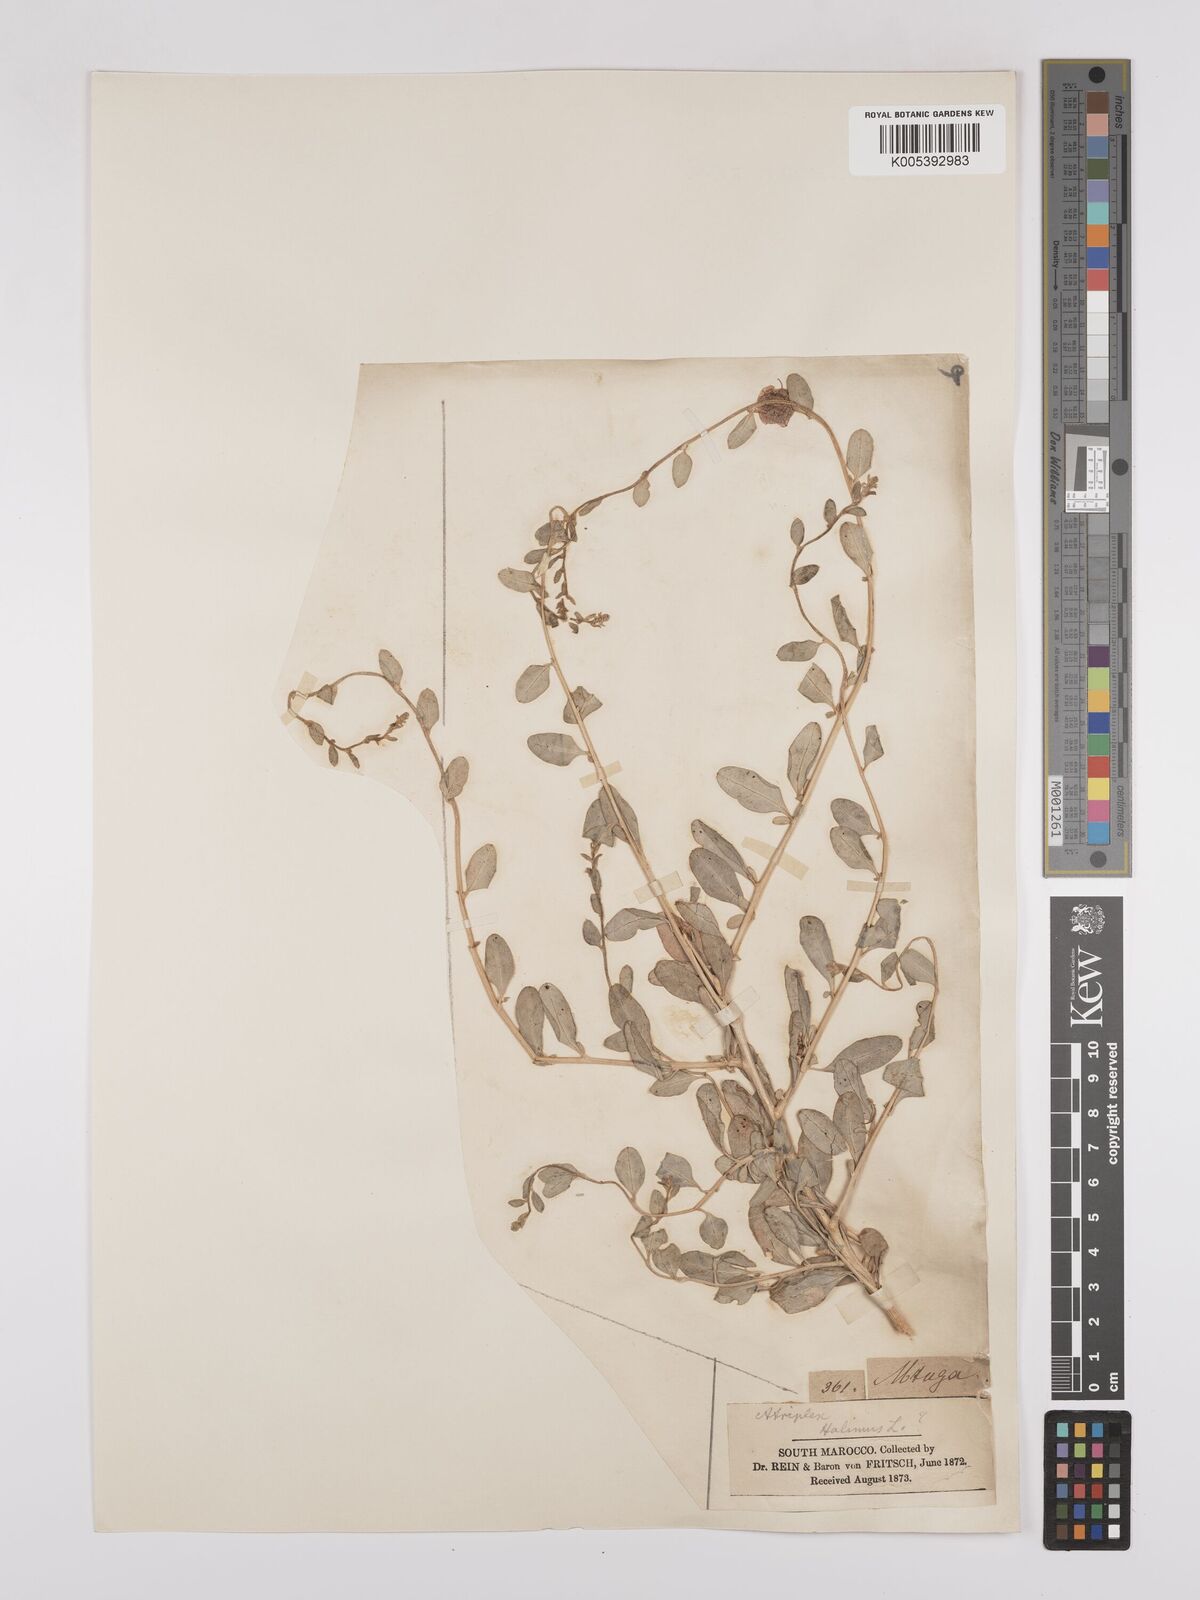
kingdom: Plantae
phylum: Tracheophyta
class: Magnoliopsida
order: Caryophyllales
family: Amaranthaceae
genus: Atriplex
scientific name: Atriplex
